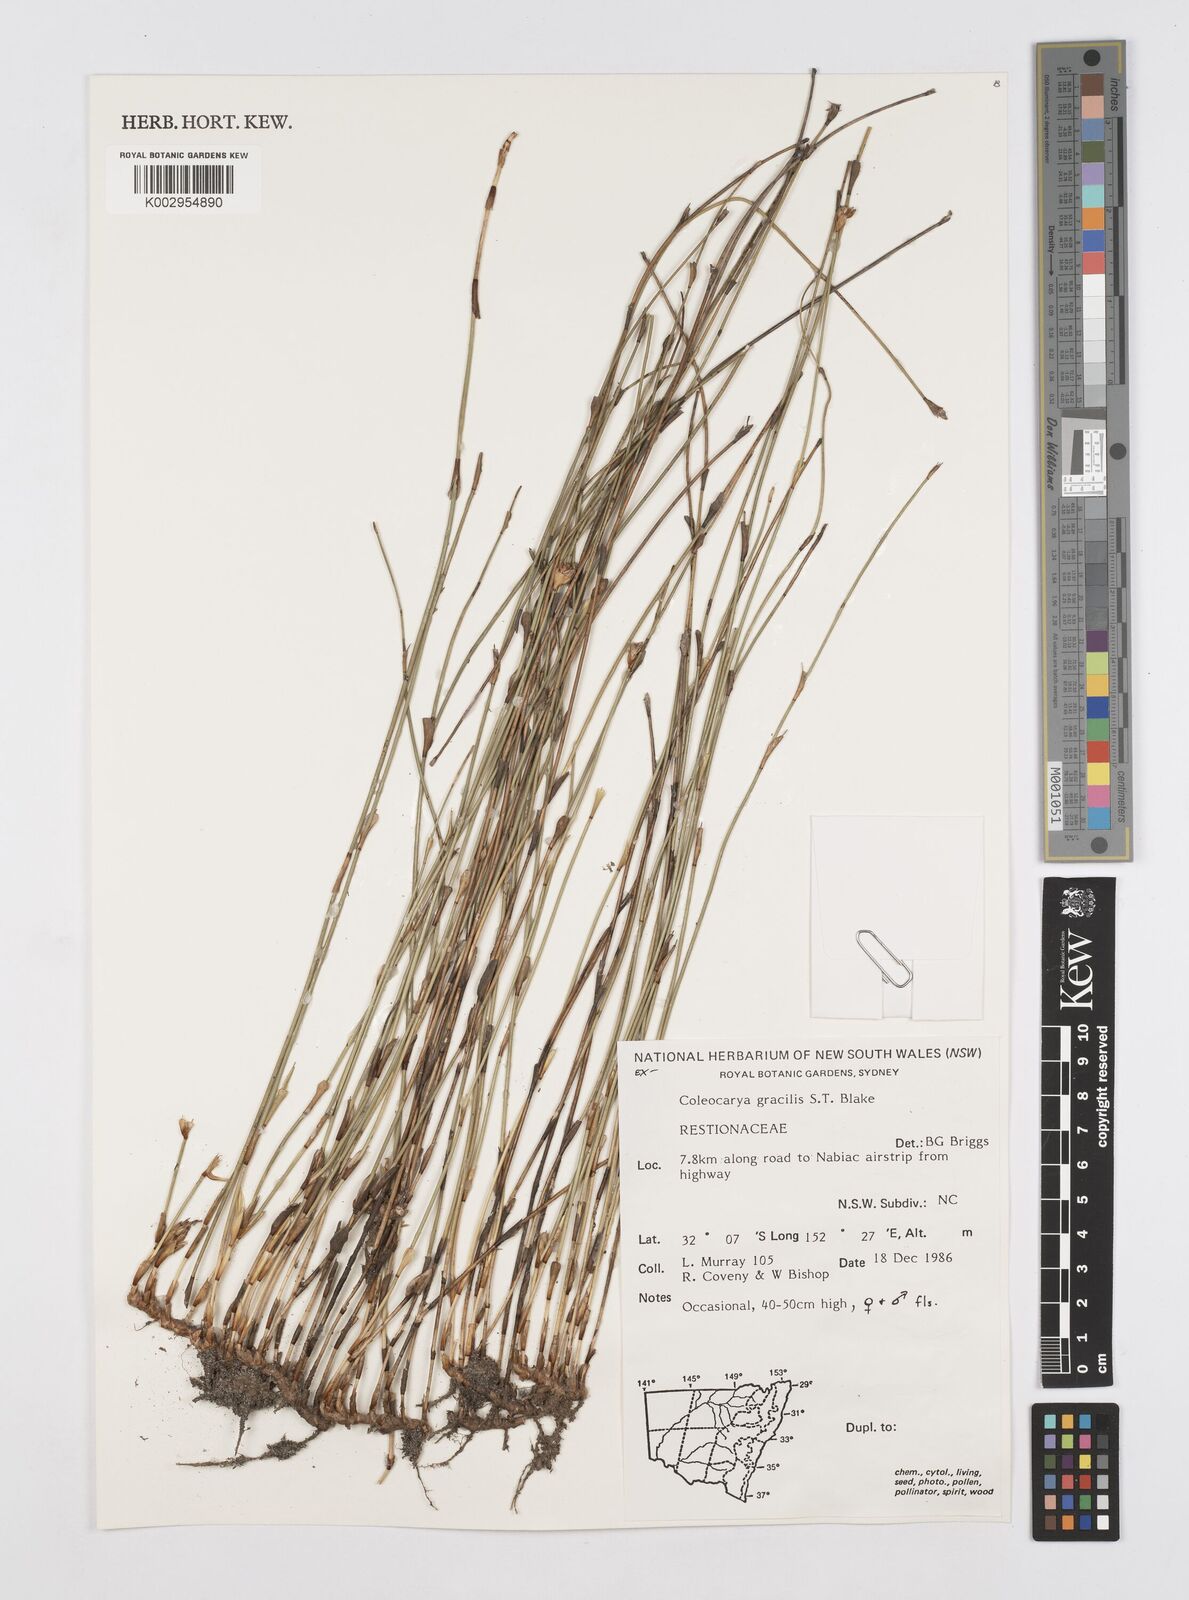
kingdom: Plantae
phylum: Tracheophyta
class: Liliopsida
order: Poales
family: Restionaceae
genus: Coleocarya
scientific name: Coleocarya gracilis
